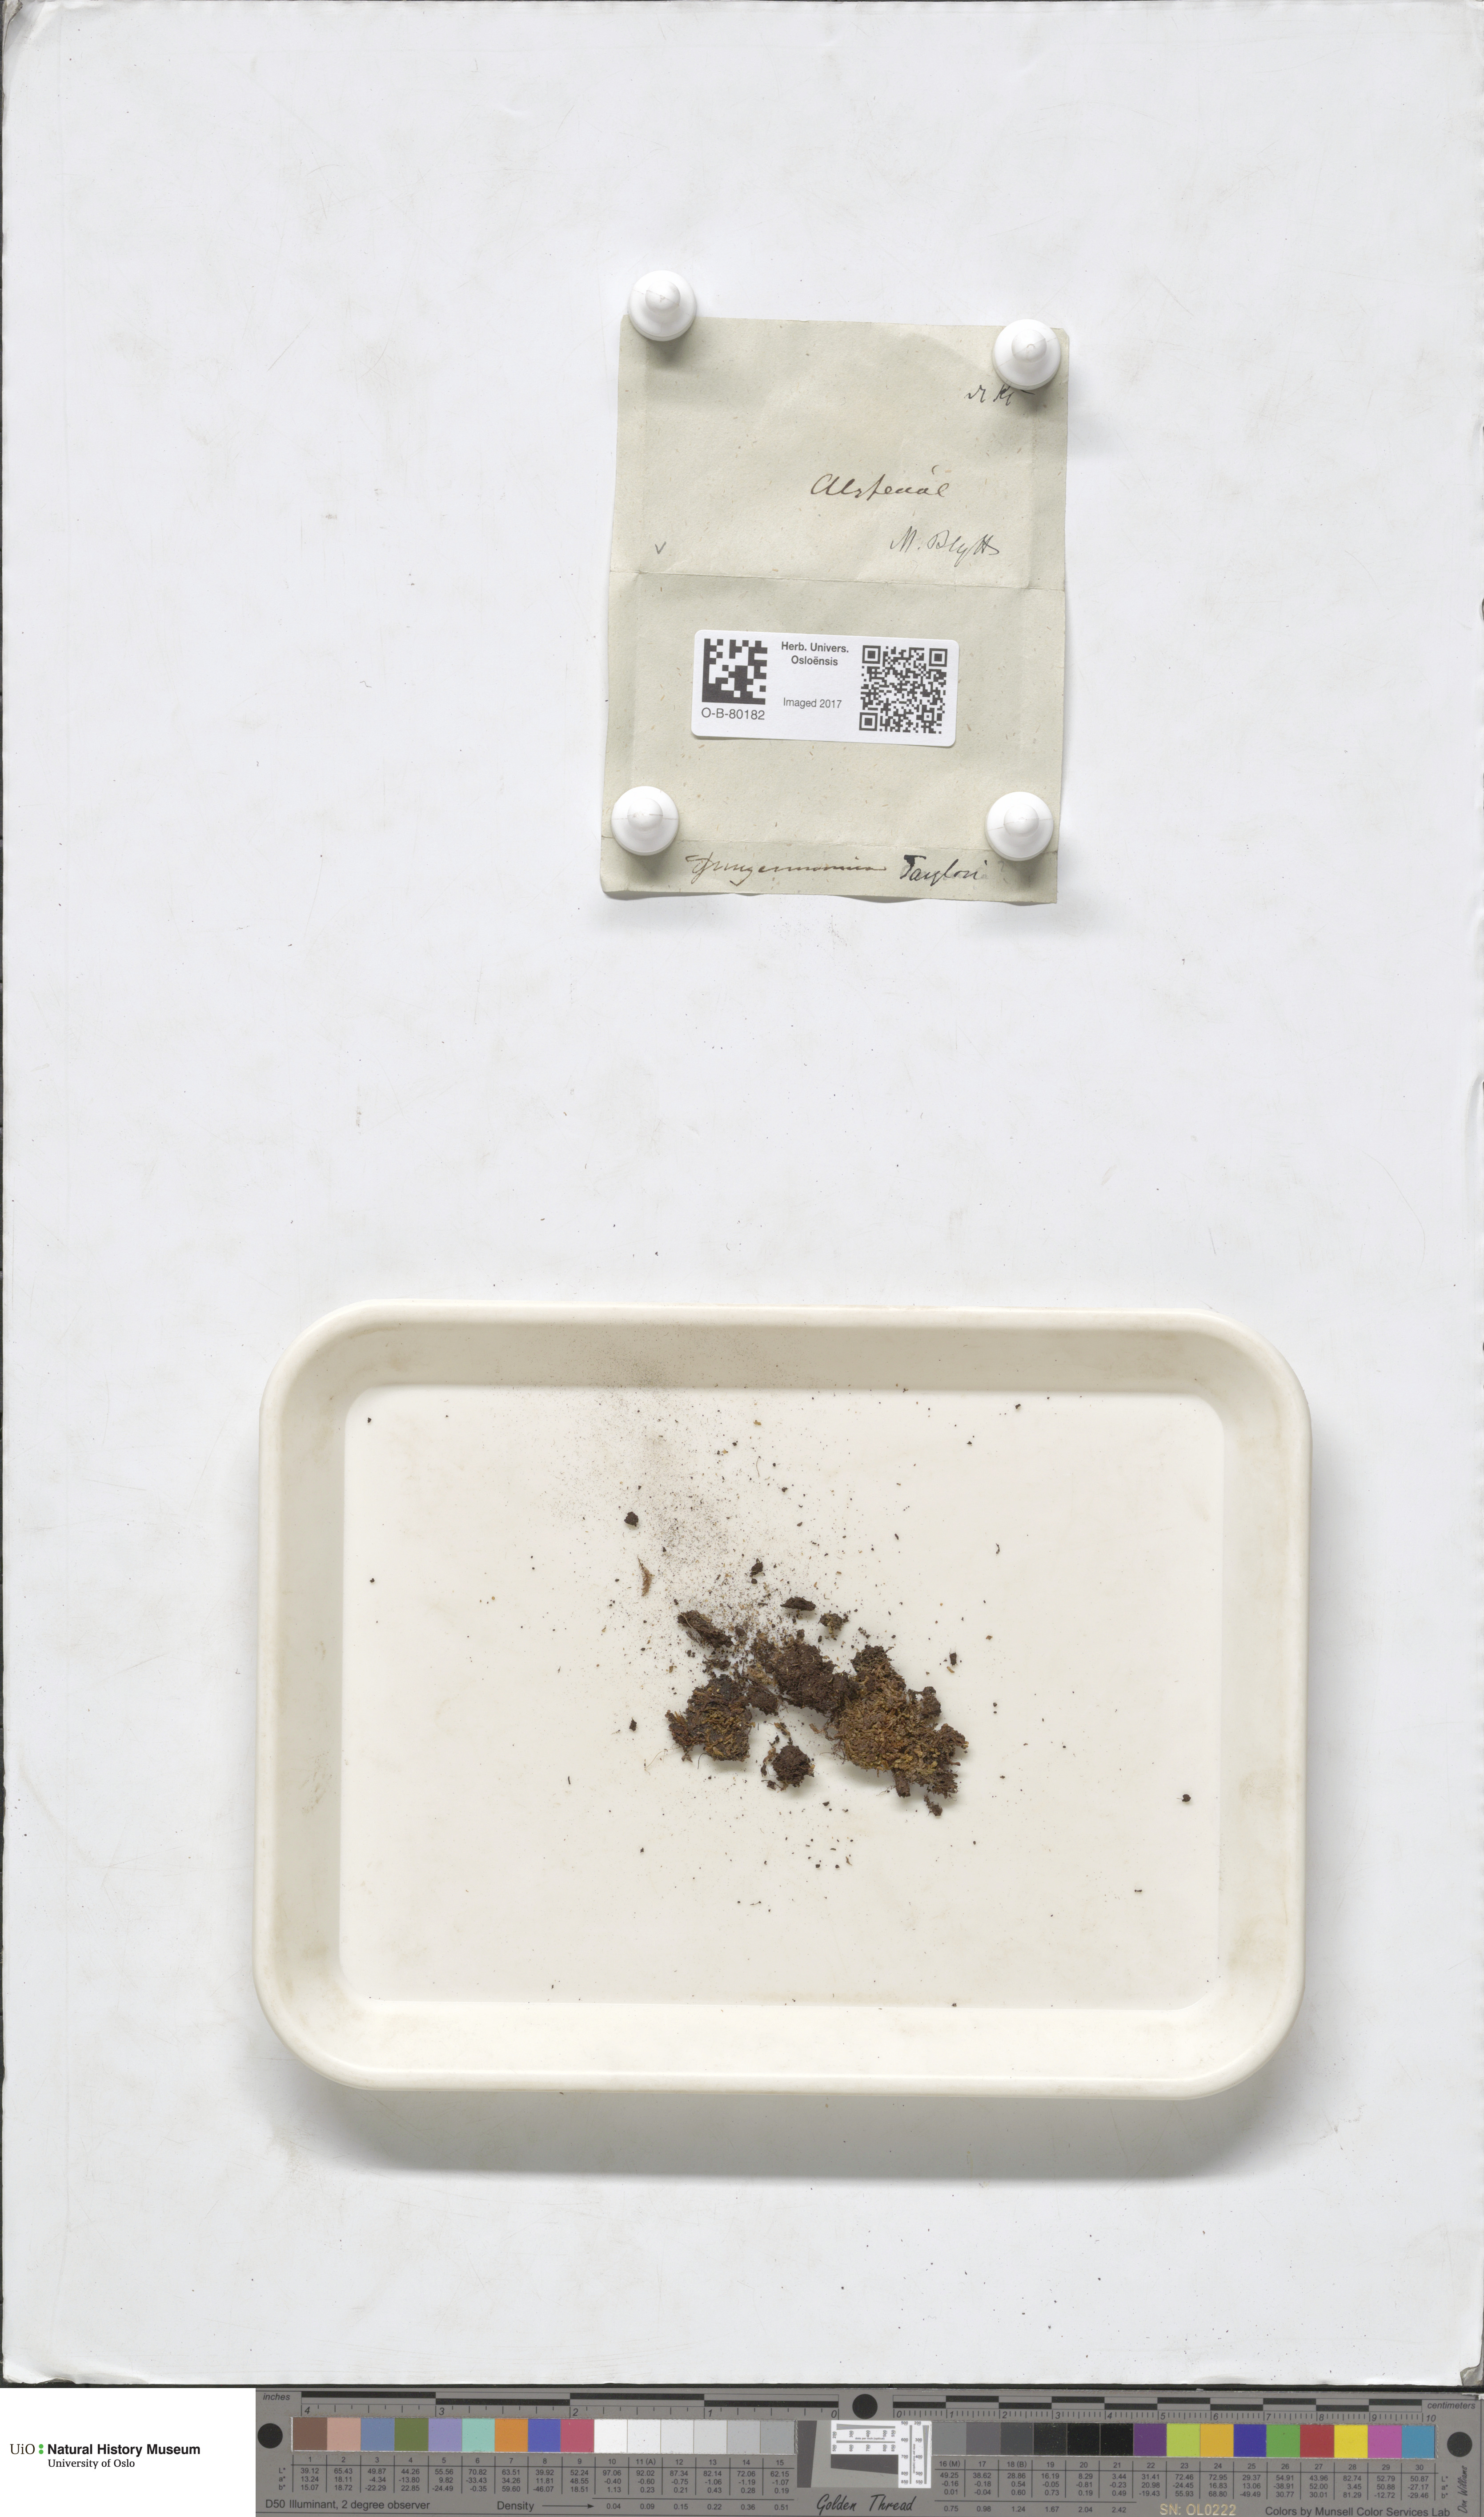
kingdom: Plantae
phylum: Marchantiophyta
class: Jungermanniopsida
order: Jungermanniales
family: Myliaceae
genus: Mylia
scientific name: Mylia taylorii
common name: Taylor s flapwort
